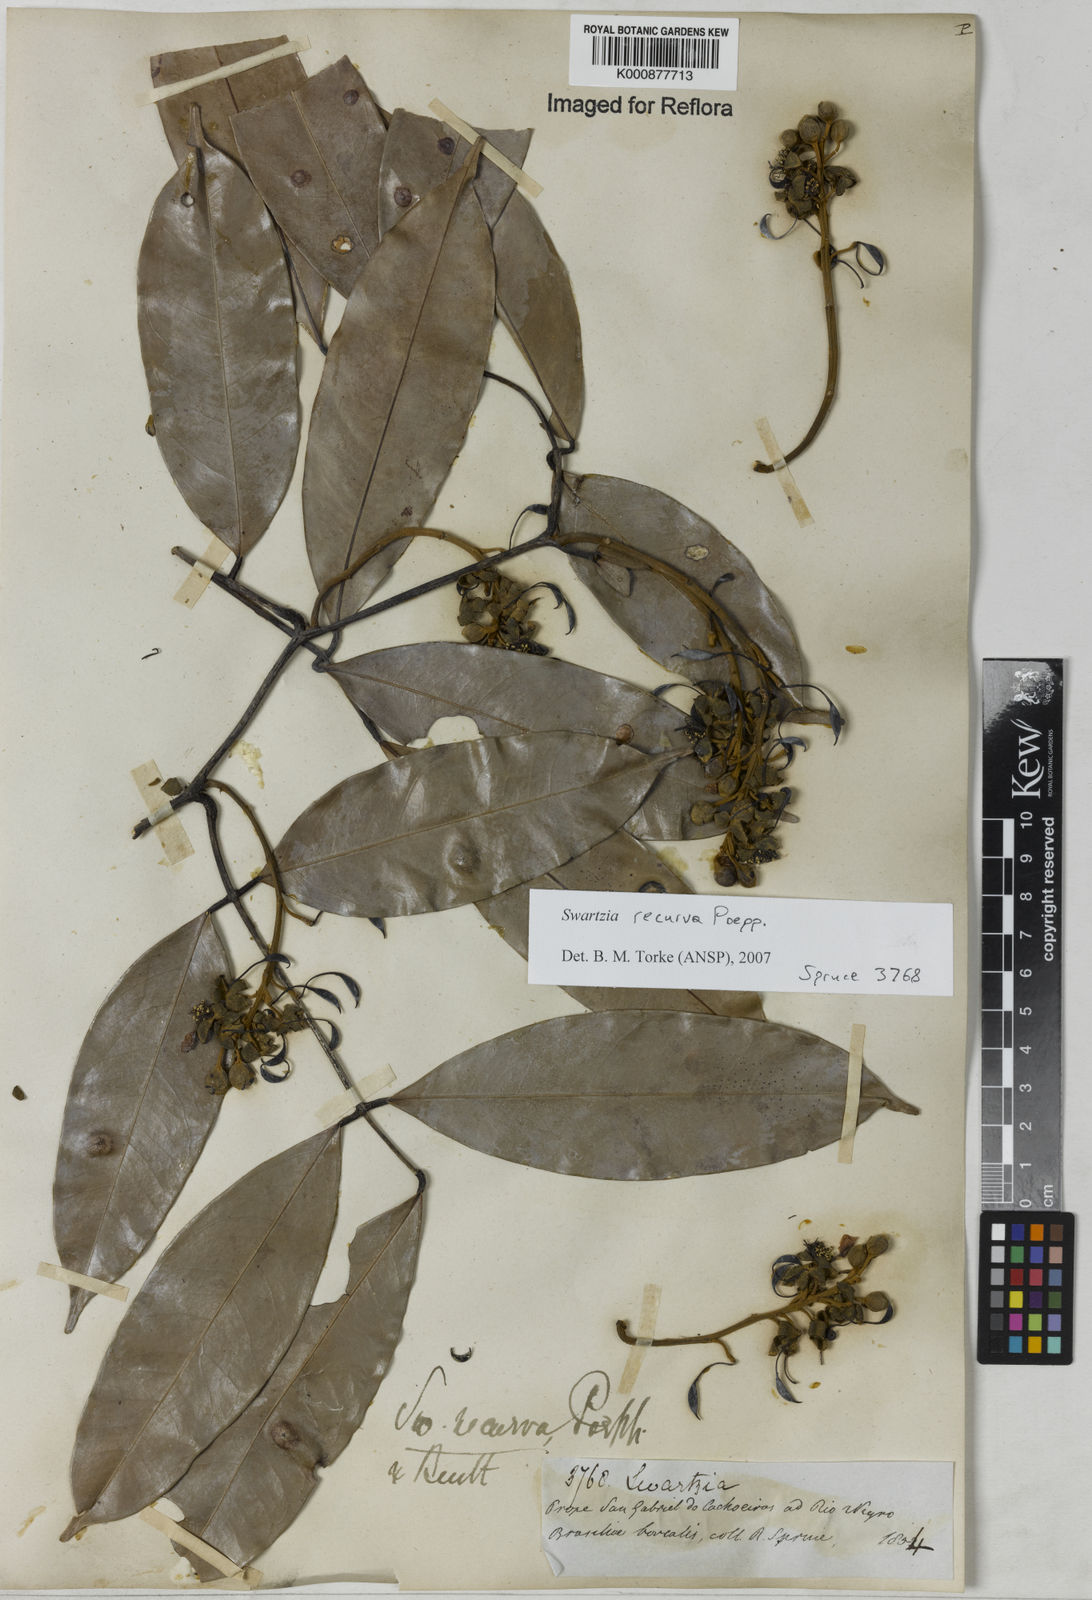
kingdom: Plantae
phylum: Tracheophyta
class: Magnoliopsida
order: Fabales
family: Fabaceae
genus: Swartzia
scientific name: Swartzia recurva
